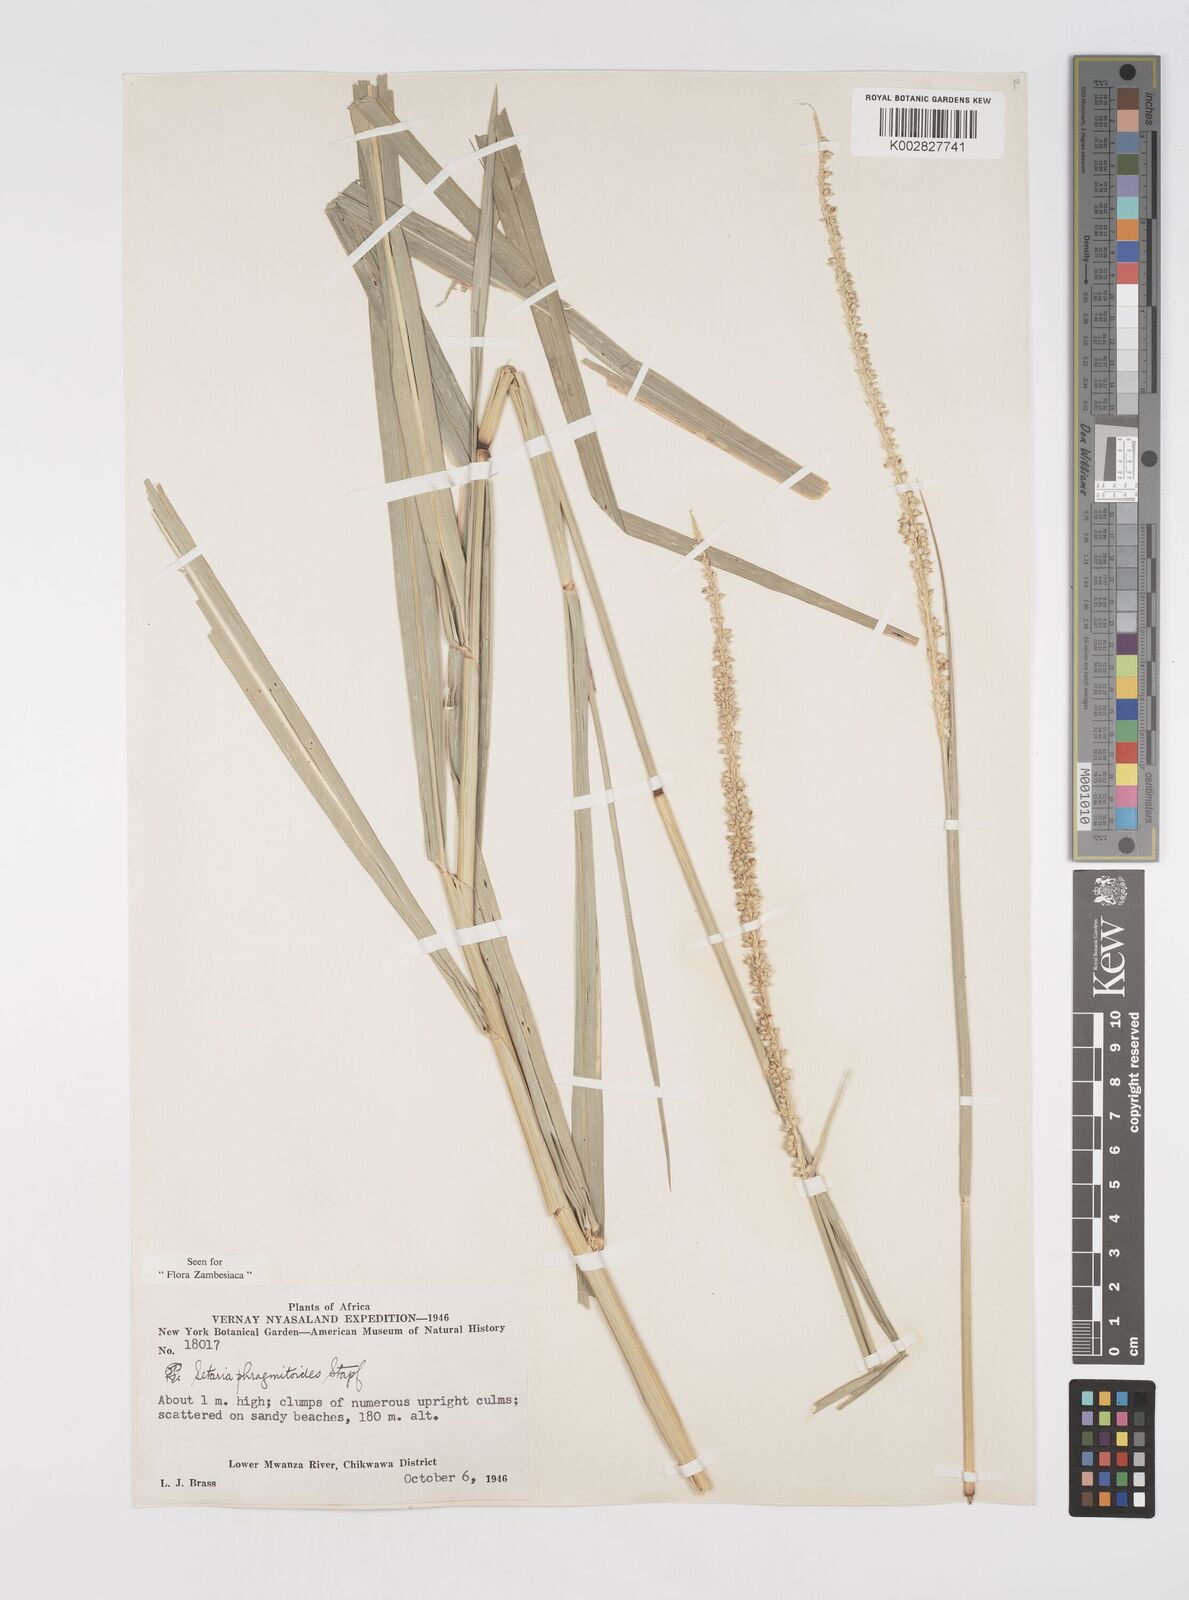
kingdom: Plantae
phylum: Tracheophyta
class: Liliopsida
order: Poales
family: Poaceae
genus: Setaria
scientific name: Setaria incrassata
